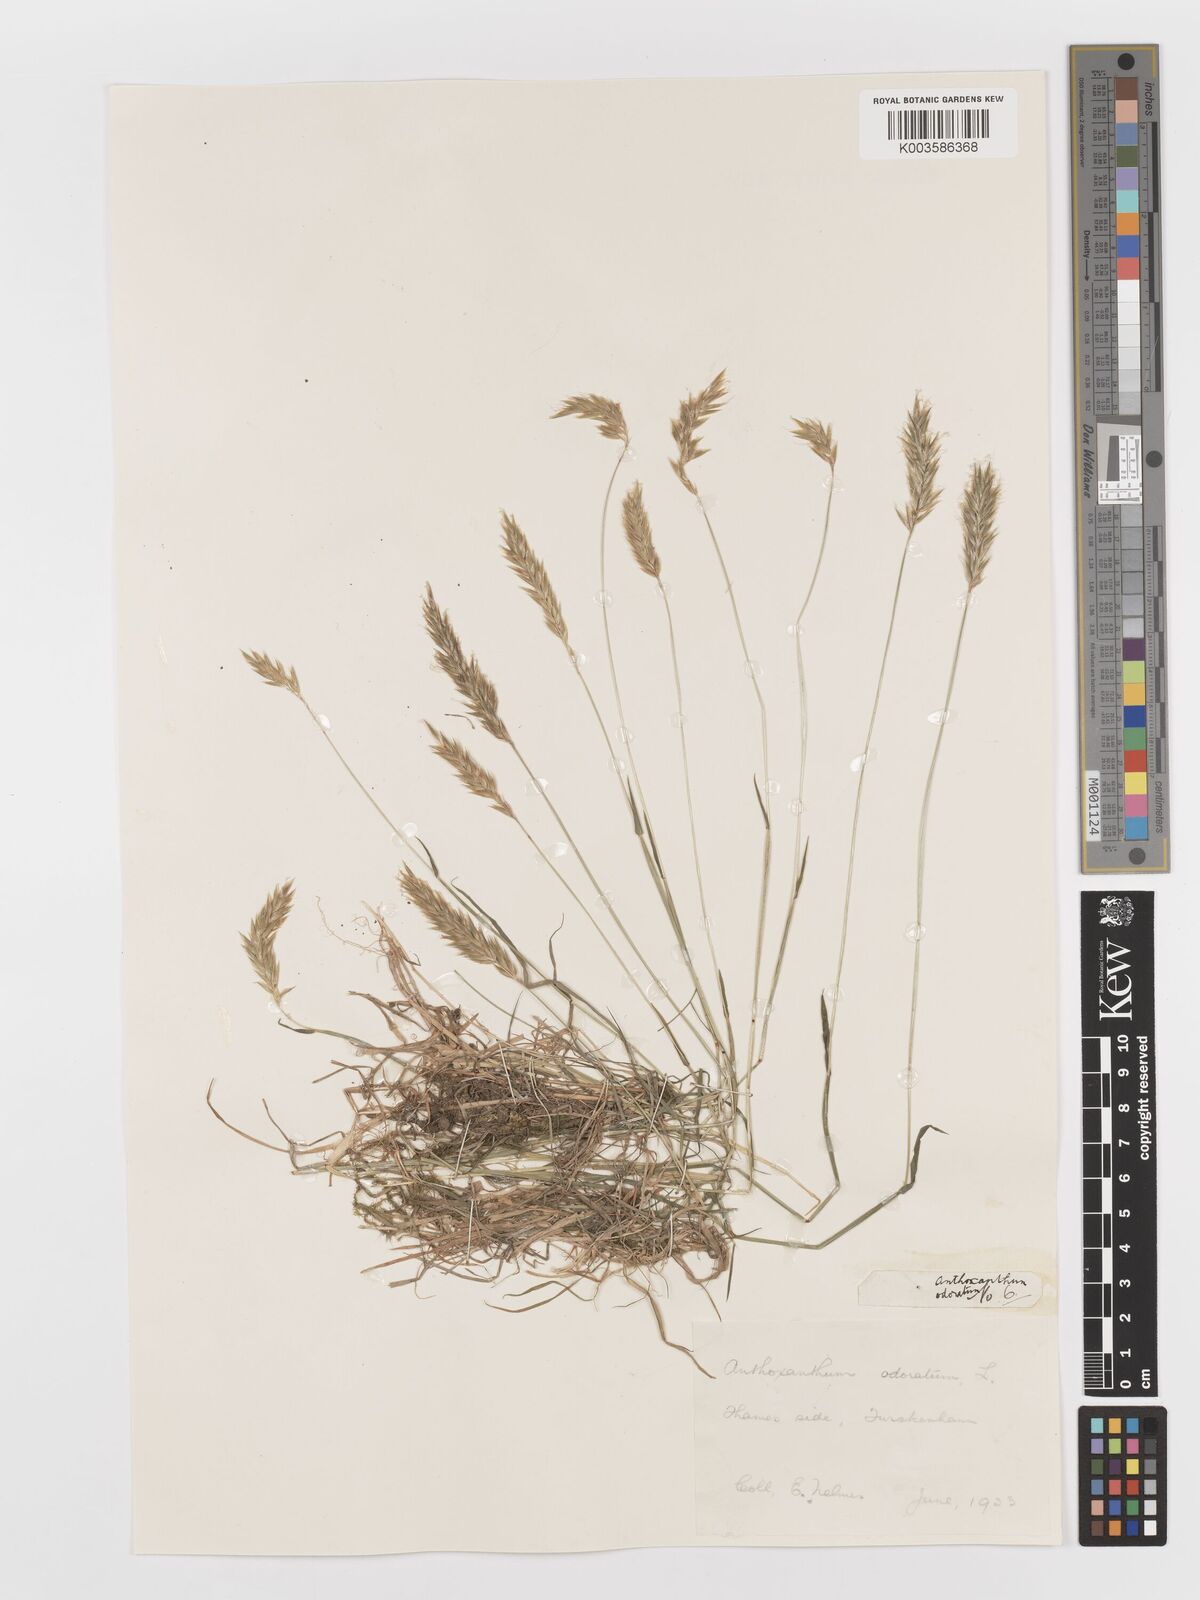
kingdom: Plantae
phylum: Tracheophyta
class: Liliopsida
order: Poales
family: Poaceae
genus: Anthoxanthum
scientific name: Anthoxanthum odoratum
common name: Sweet vernalgrass
